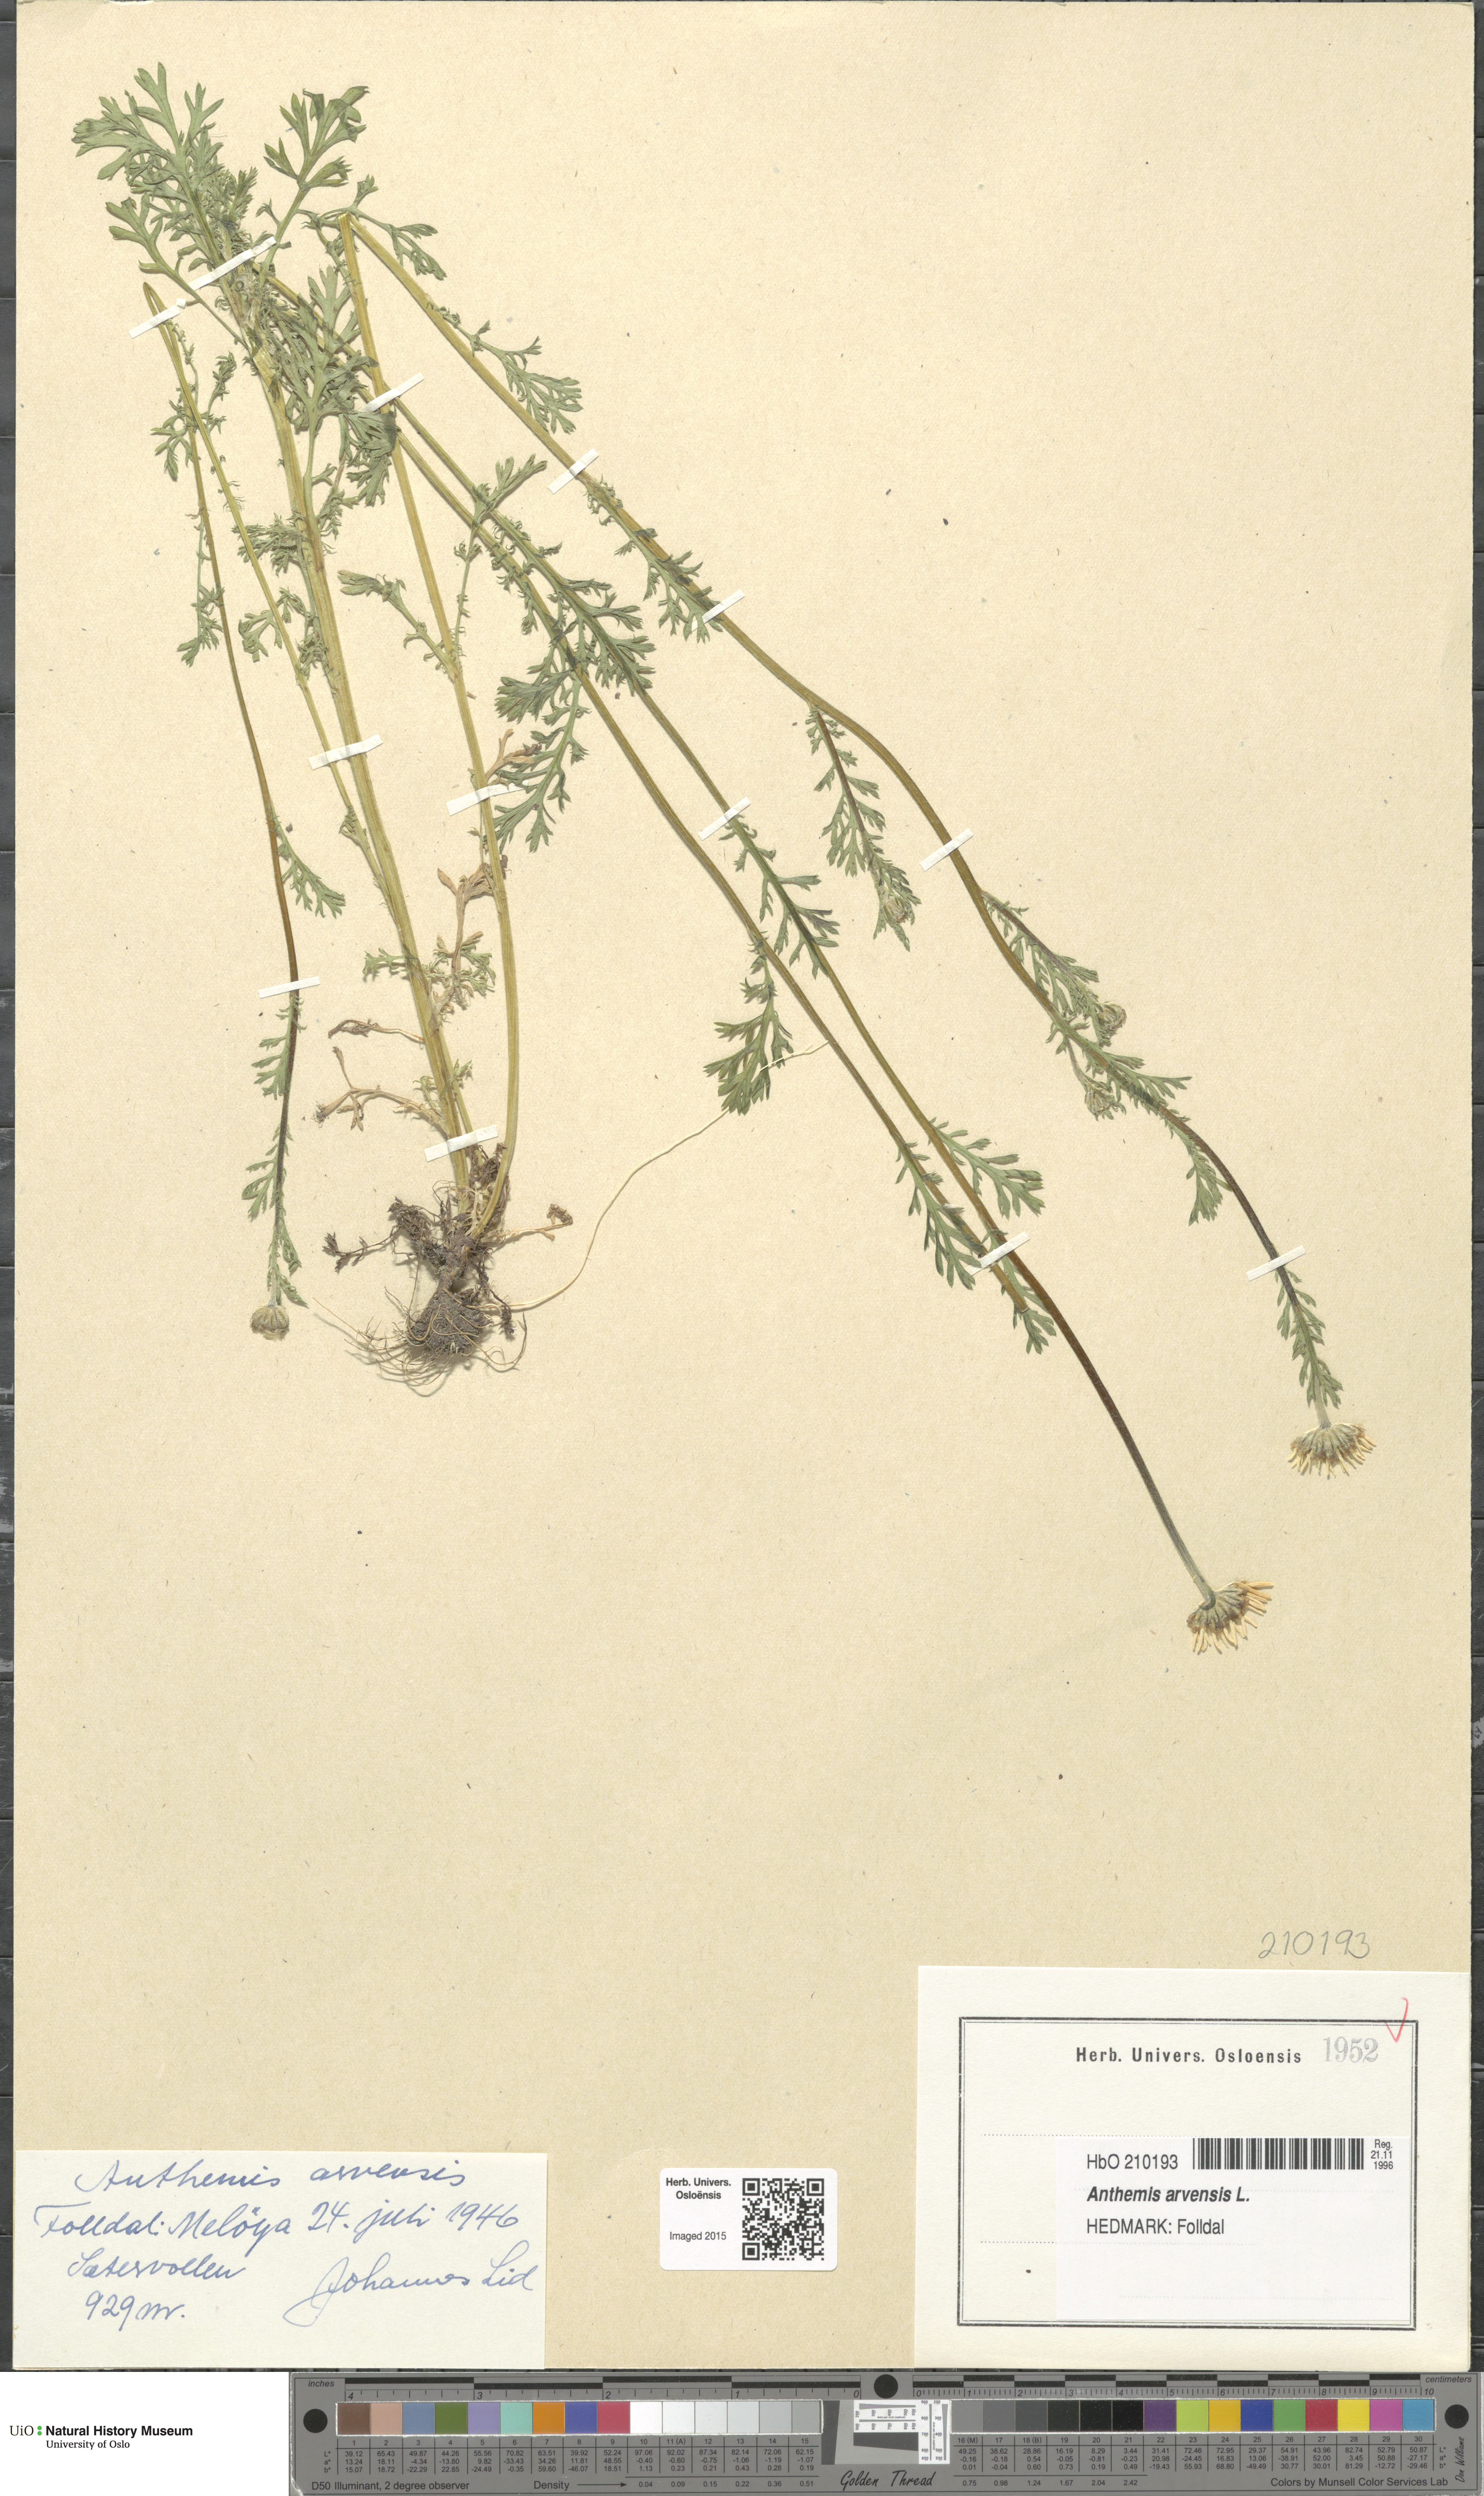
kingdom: Plantae
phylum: Tracheophyta
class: Magnoliopsida
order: Asterales
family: Asteraceae
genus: Anthemis
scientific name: Anthemis arvensis
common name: Corn chamomile
